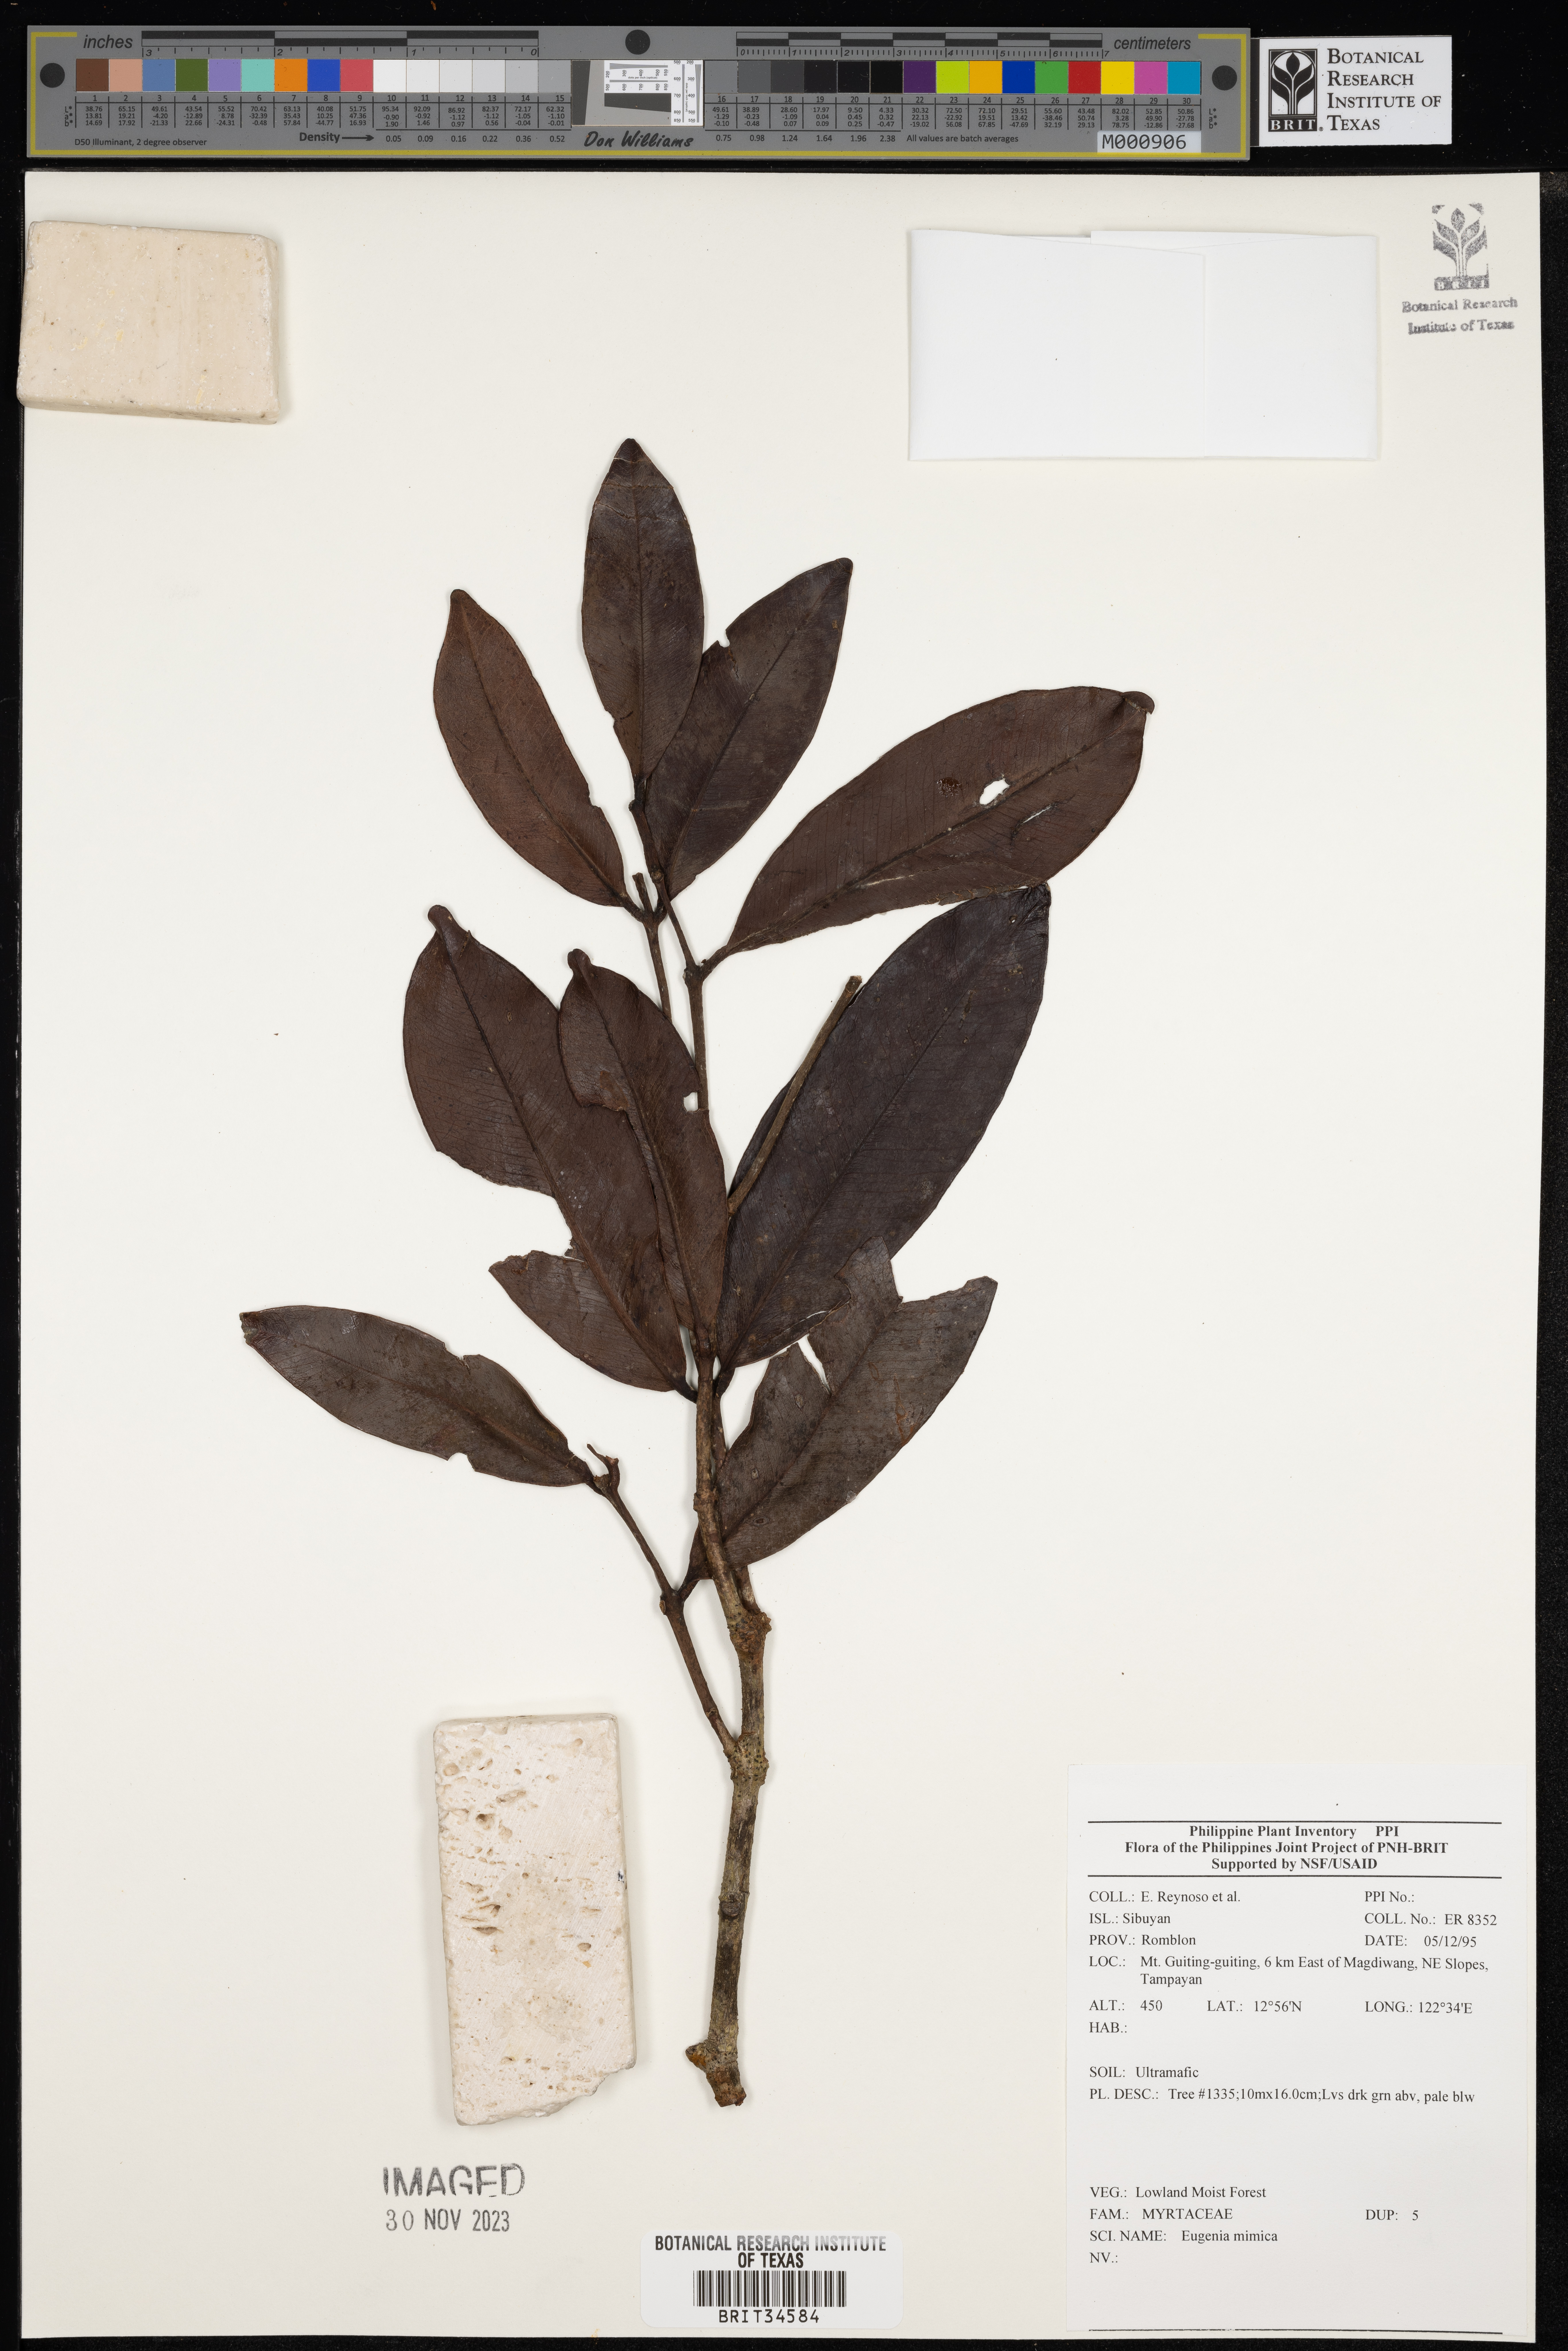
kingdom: Plantae
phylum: Tracheophyta
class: Magnoliopsida
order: Myrtales
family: Myrtaceae
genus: Eugenia
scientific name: Eugenia
